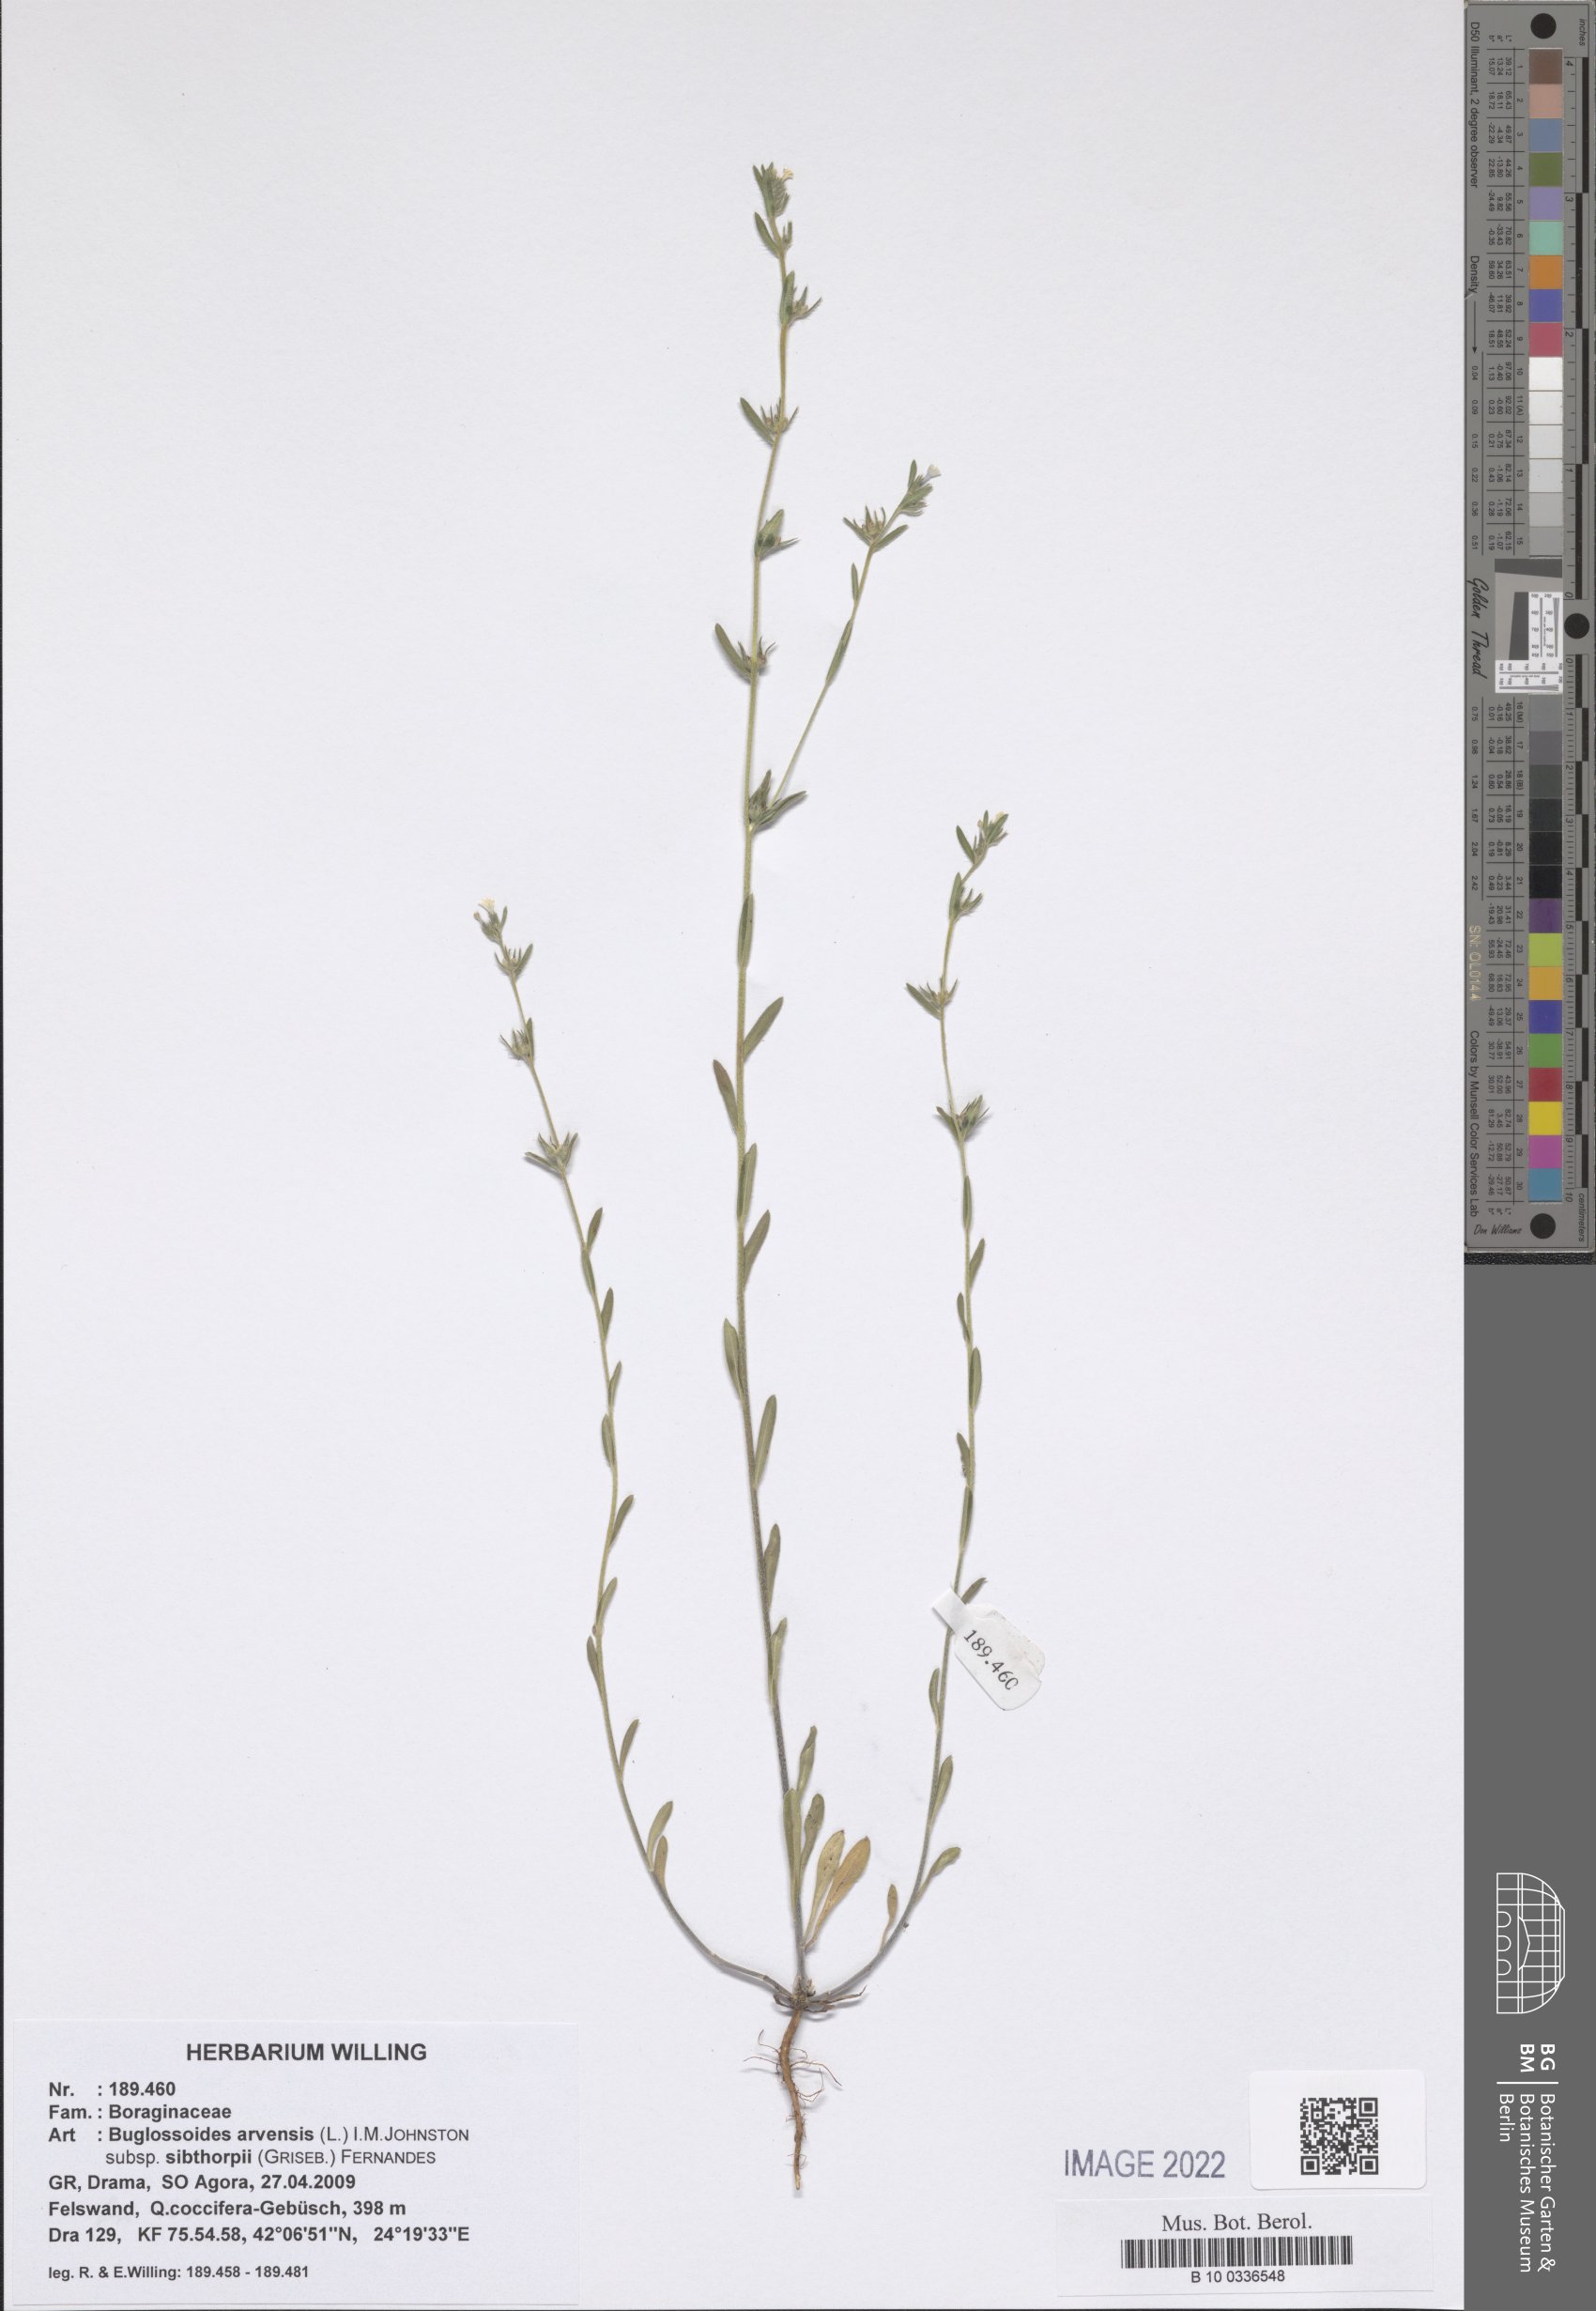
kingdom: Plantae
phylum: Tracheophyta
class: Magnoliopsida
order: Boraginales
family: Boraginaceae
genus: Buglossoides
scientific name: Buglossoides arvensis
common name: Corn gromwell
